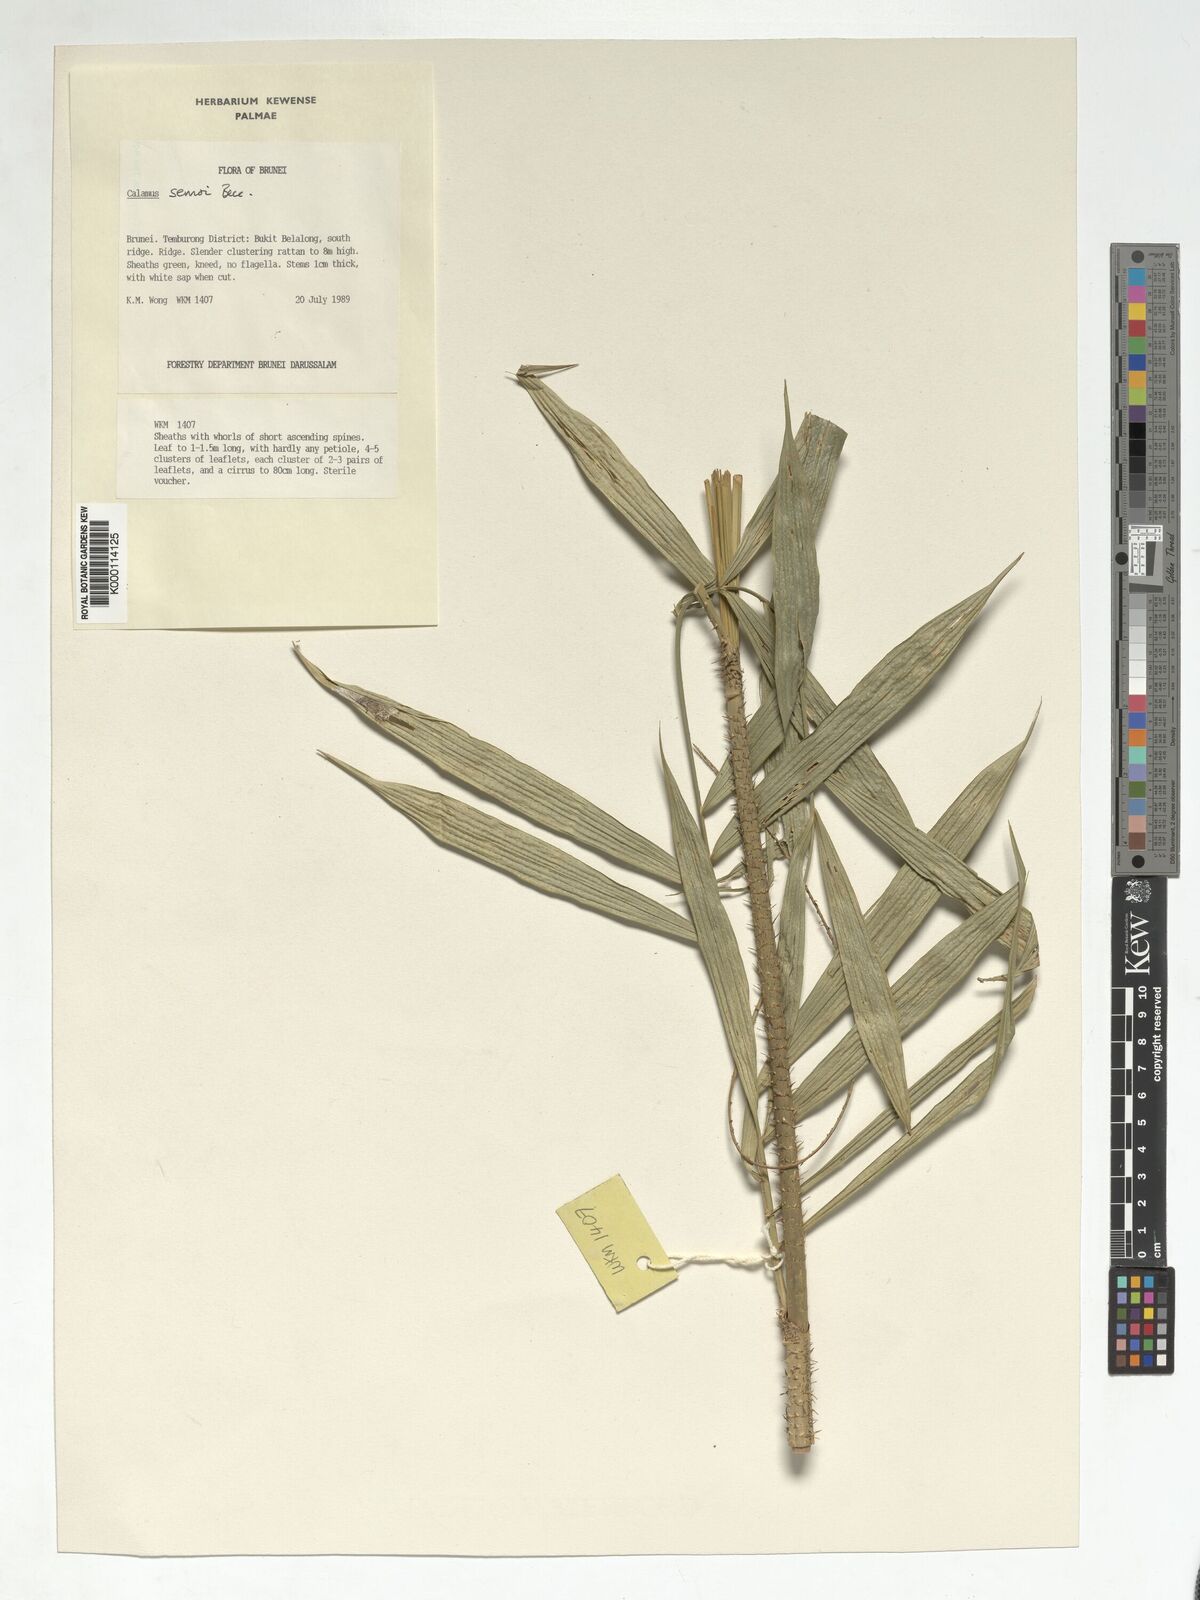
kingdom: Plantae
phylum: Tracheophyta
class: Liliopsida
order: Arecales
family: Arecaceae
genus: Calamus
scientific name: Calamus erioacanthus
